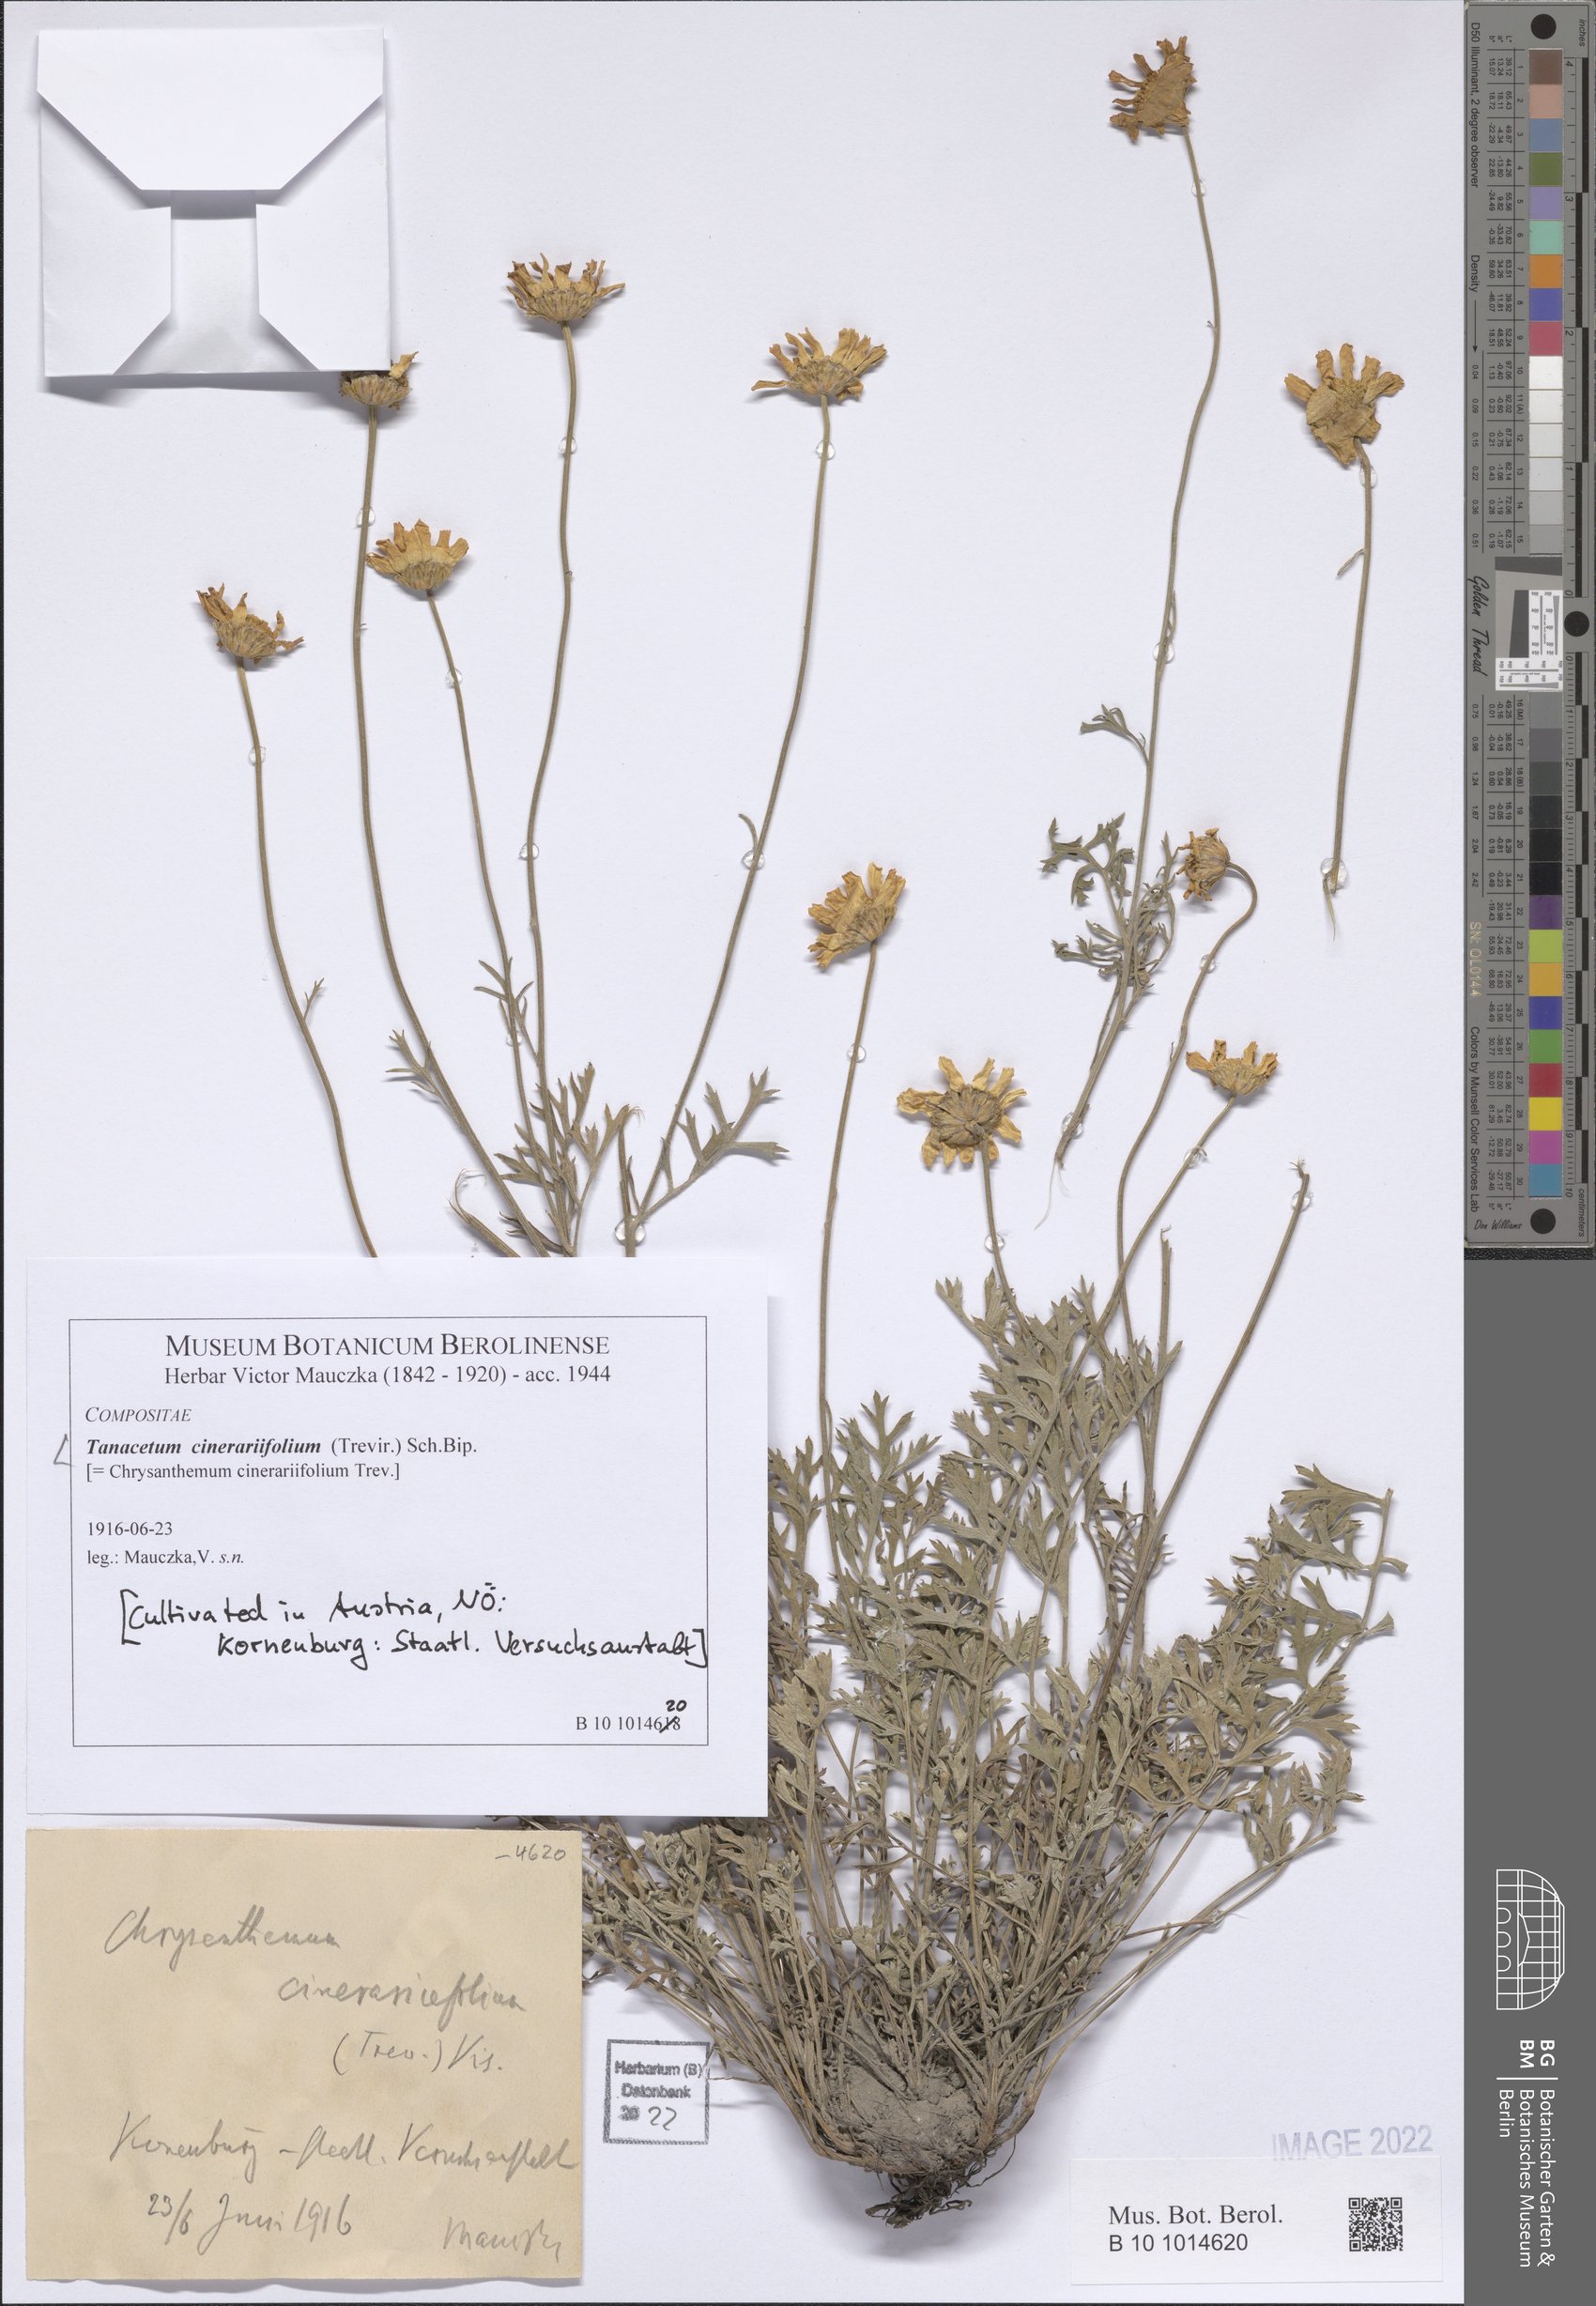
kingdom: Plantae
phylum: Tracheophyta
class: Magnoliopsida
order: Asterales
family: Asteraceae
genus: Tanacetum
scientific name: Tanacetum cinerariifolium
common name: Dalmatian pyrethrum
